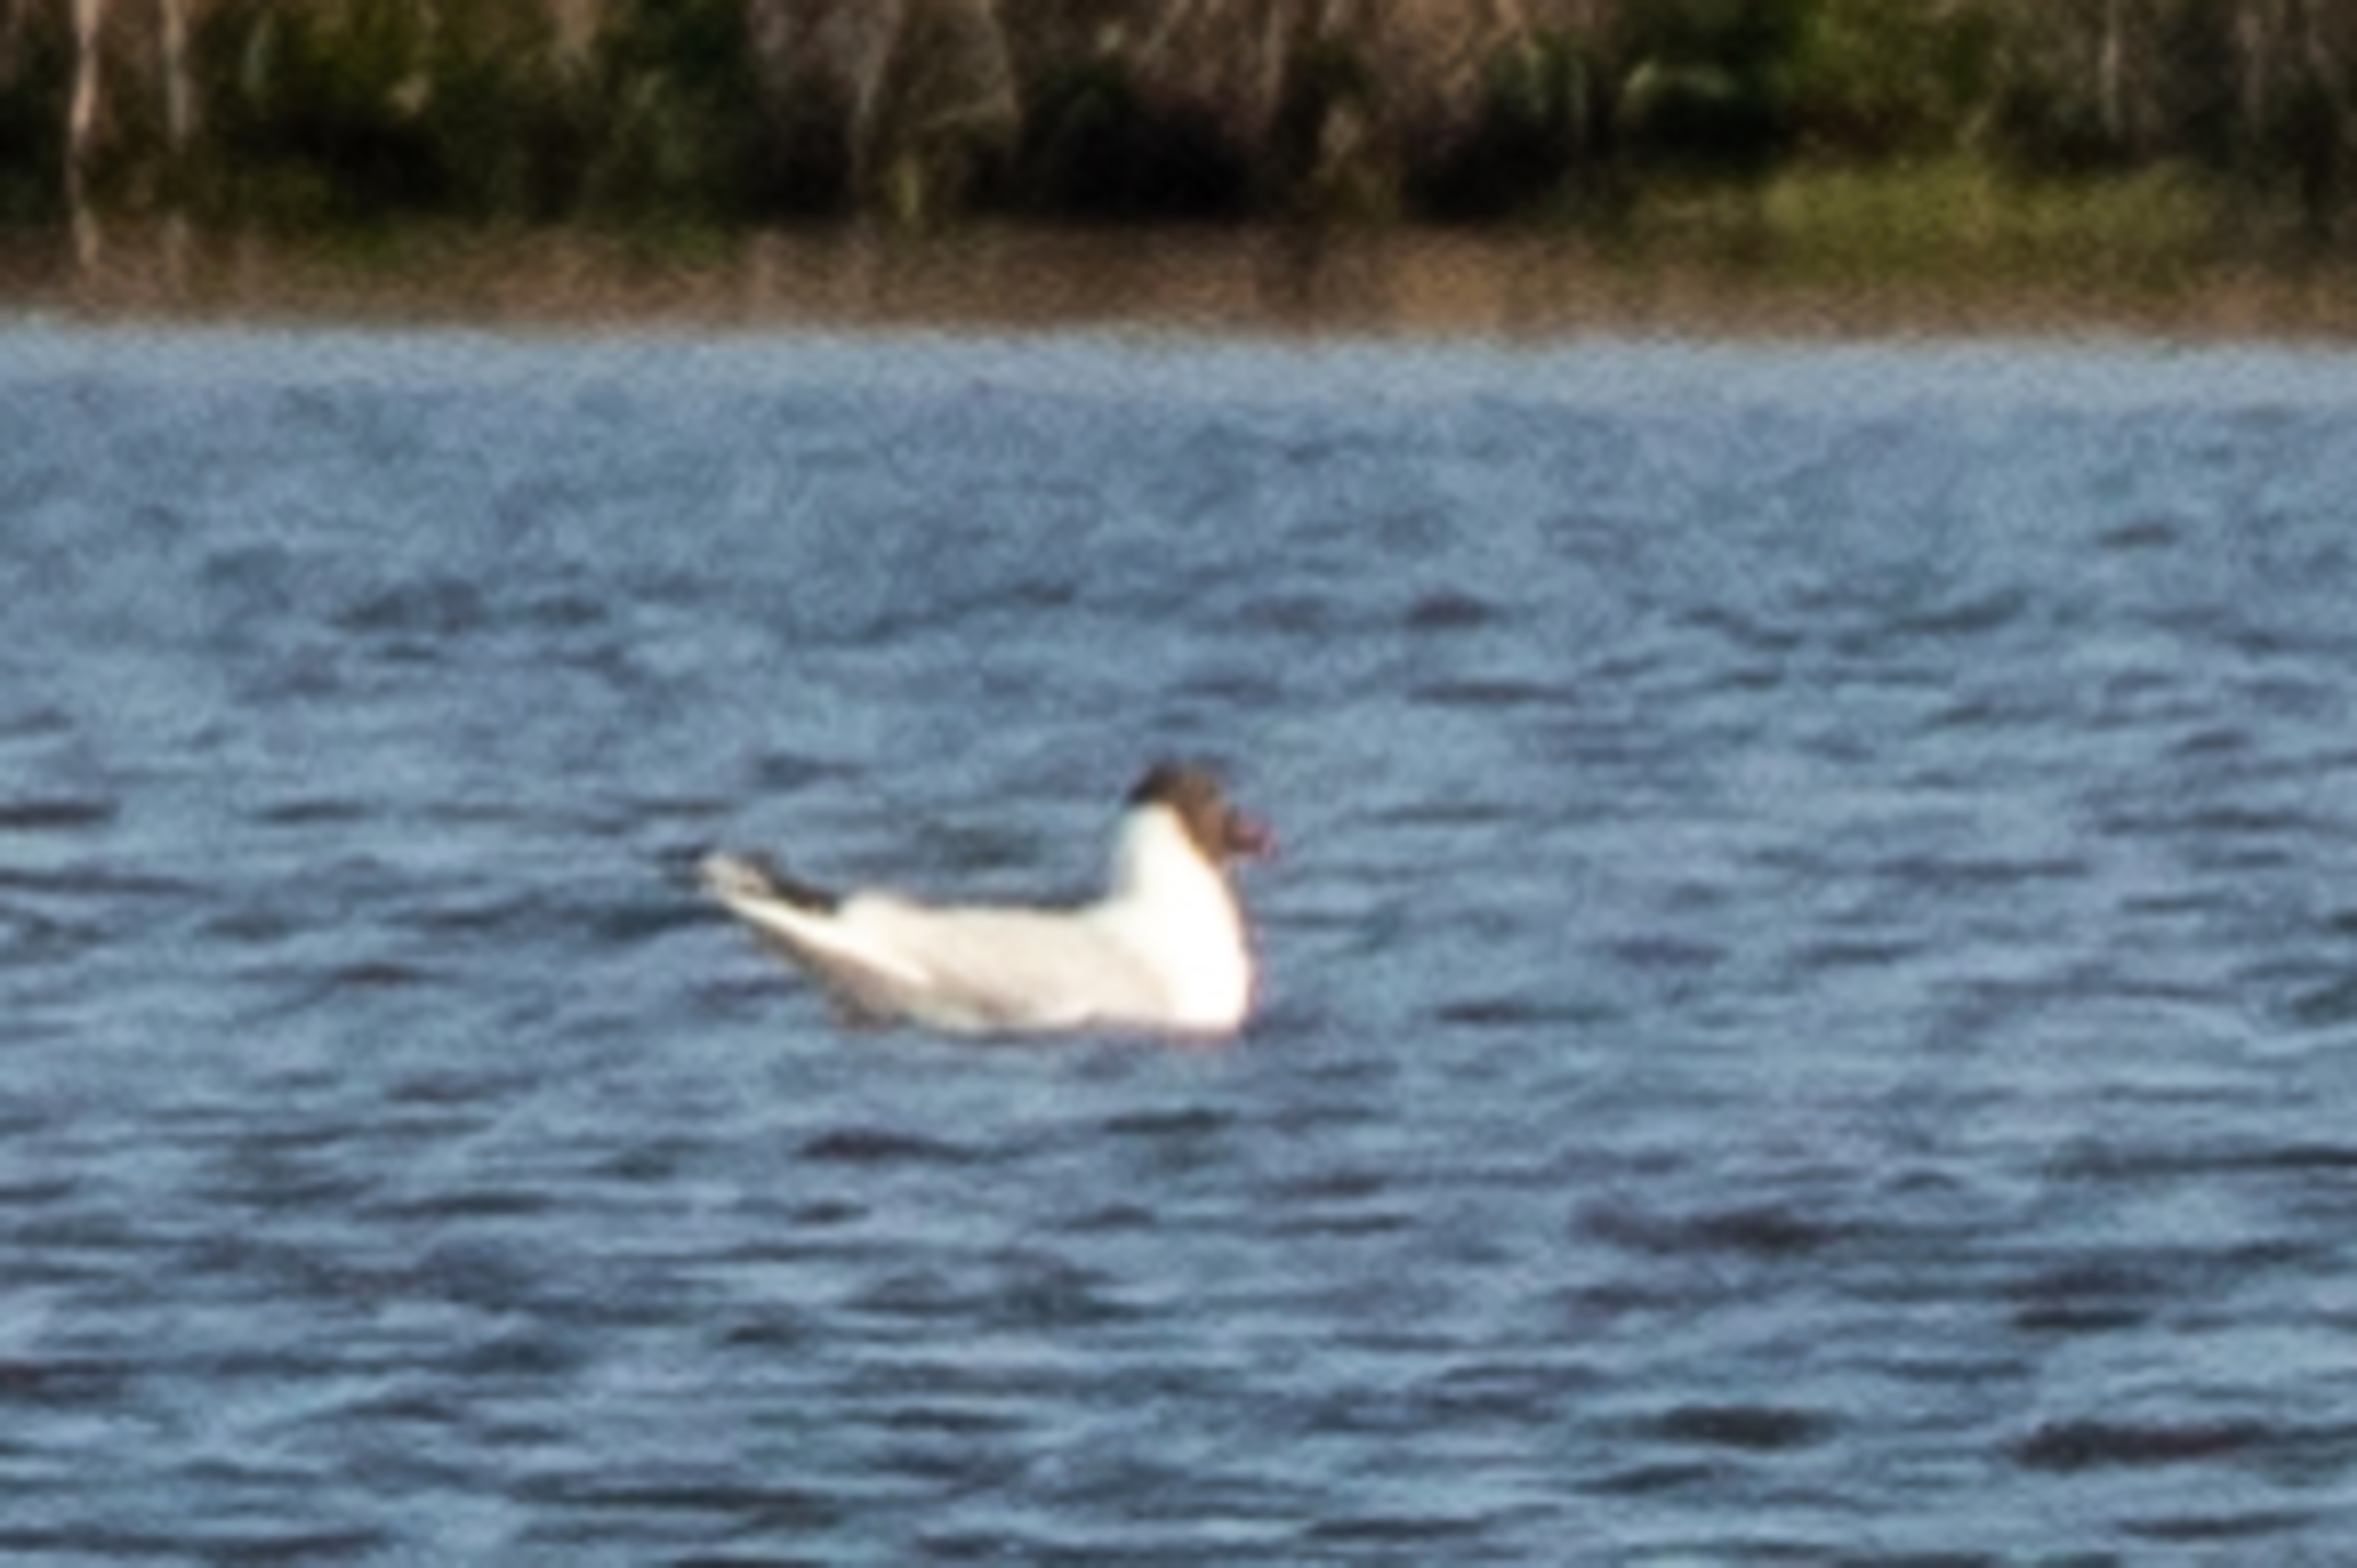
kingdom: Animalia
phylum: Chordata
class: Aves
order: Charadriiformes
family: Laridae
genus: Chroicocephalus
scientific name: Chroicocephalus ridibundus
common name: Hættemåge
